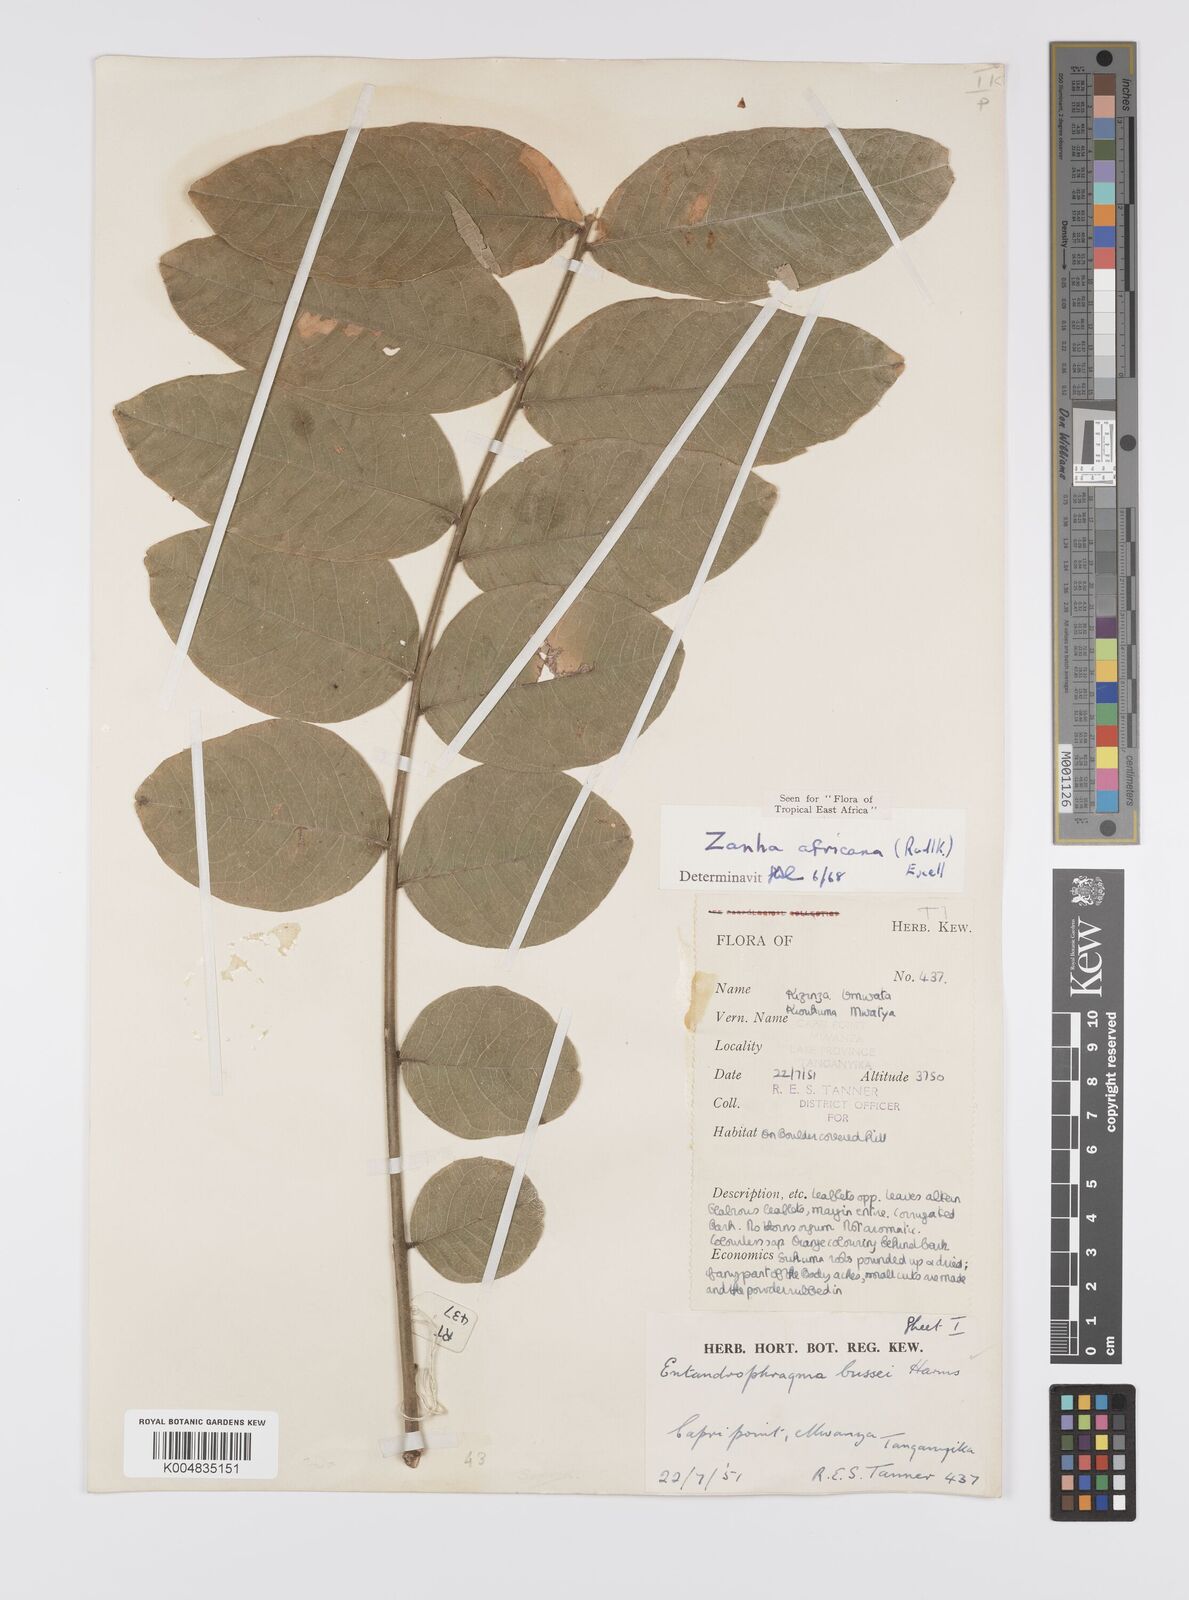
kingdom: Plantae
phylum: Tracheophyta
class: Magnoliopsida
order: Sapindales
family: Sapindaceae
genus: Zanha
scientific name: Zanha africana
